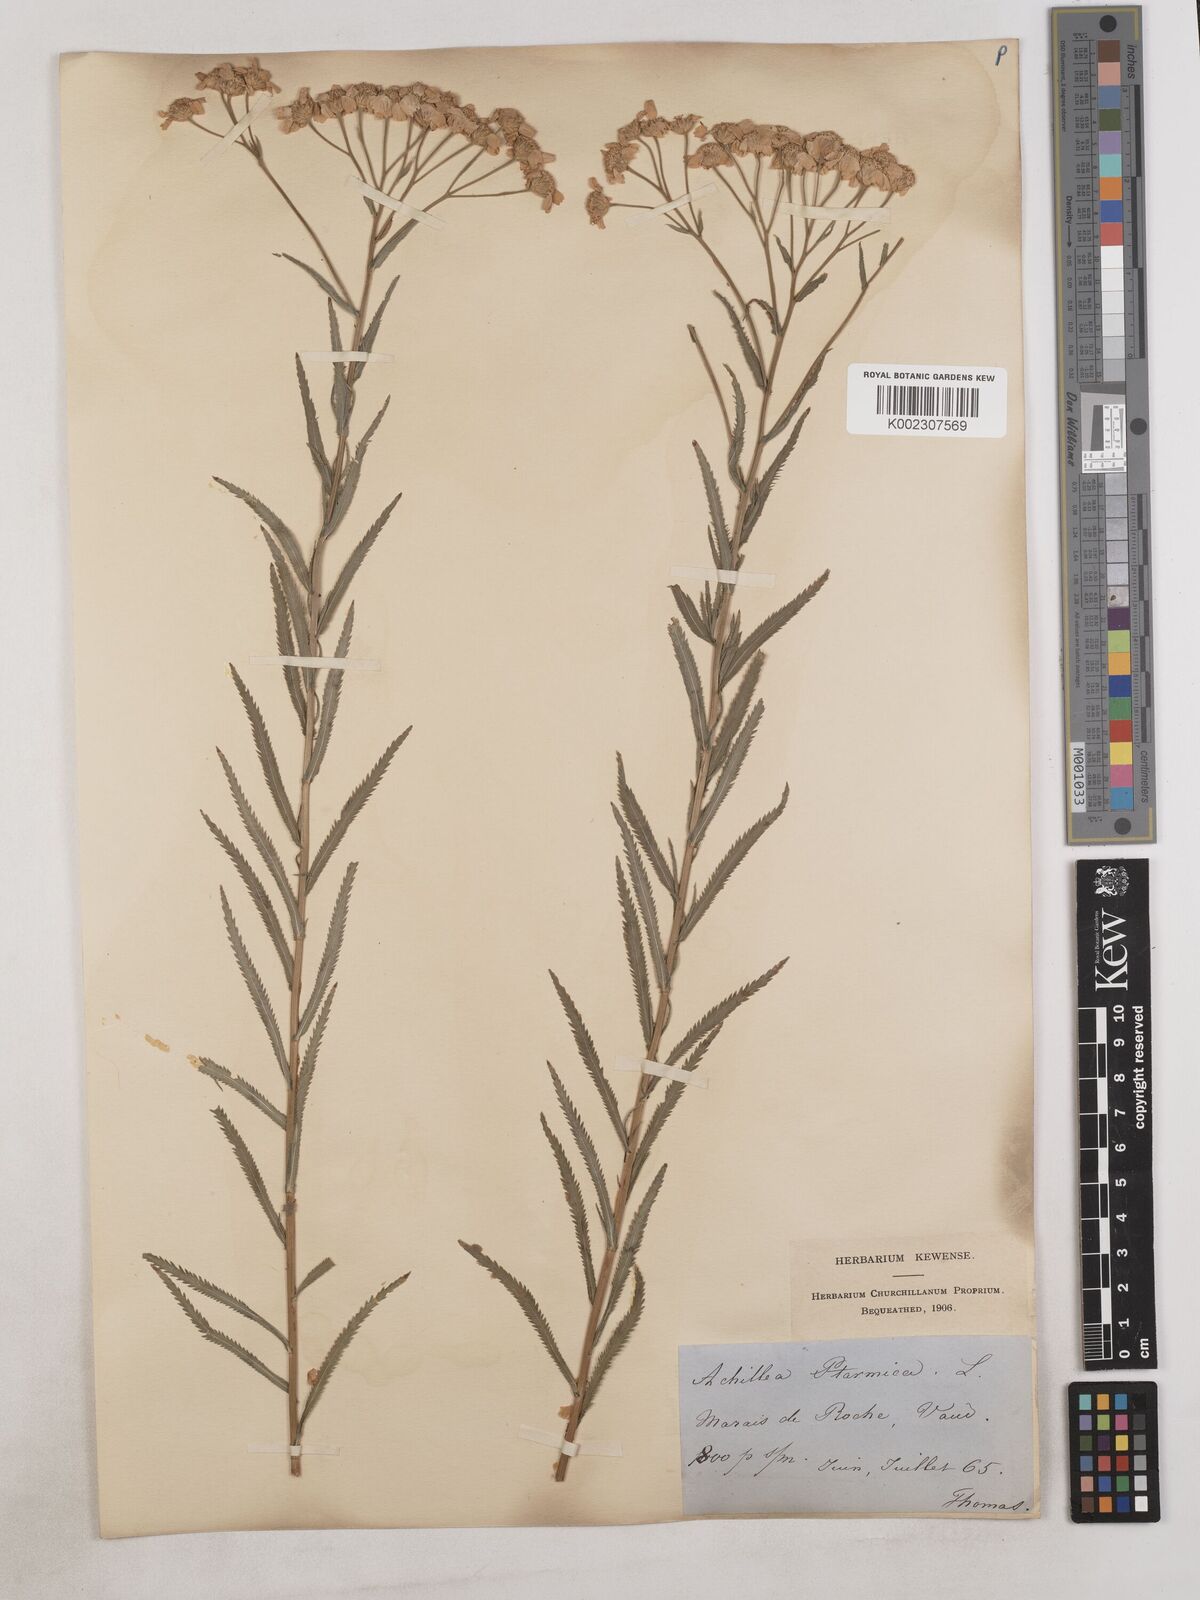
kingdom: Plantae
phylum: Tracheophyta
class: Magnoliopsida
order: Asterales
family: Asteraceae
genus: Achillea
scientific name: Achillea serrata
